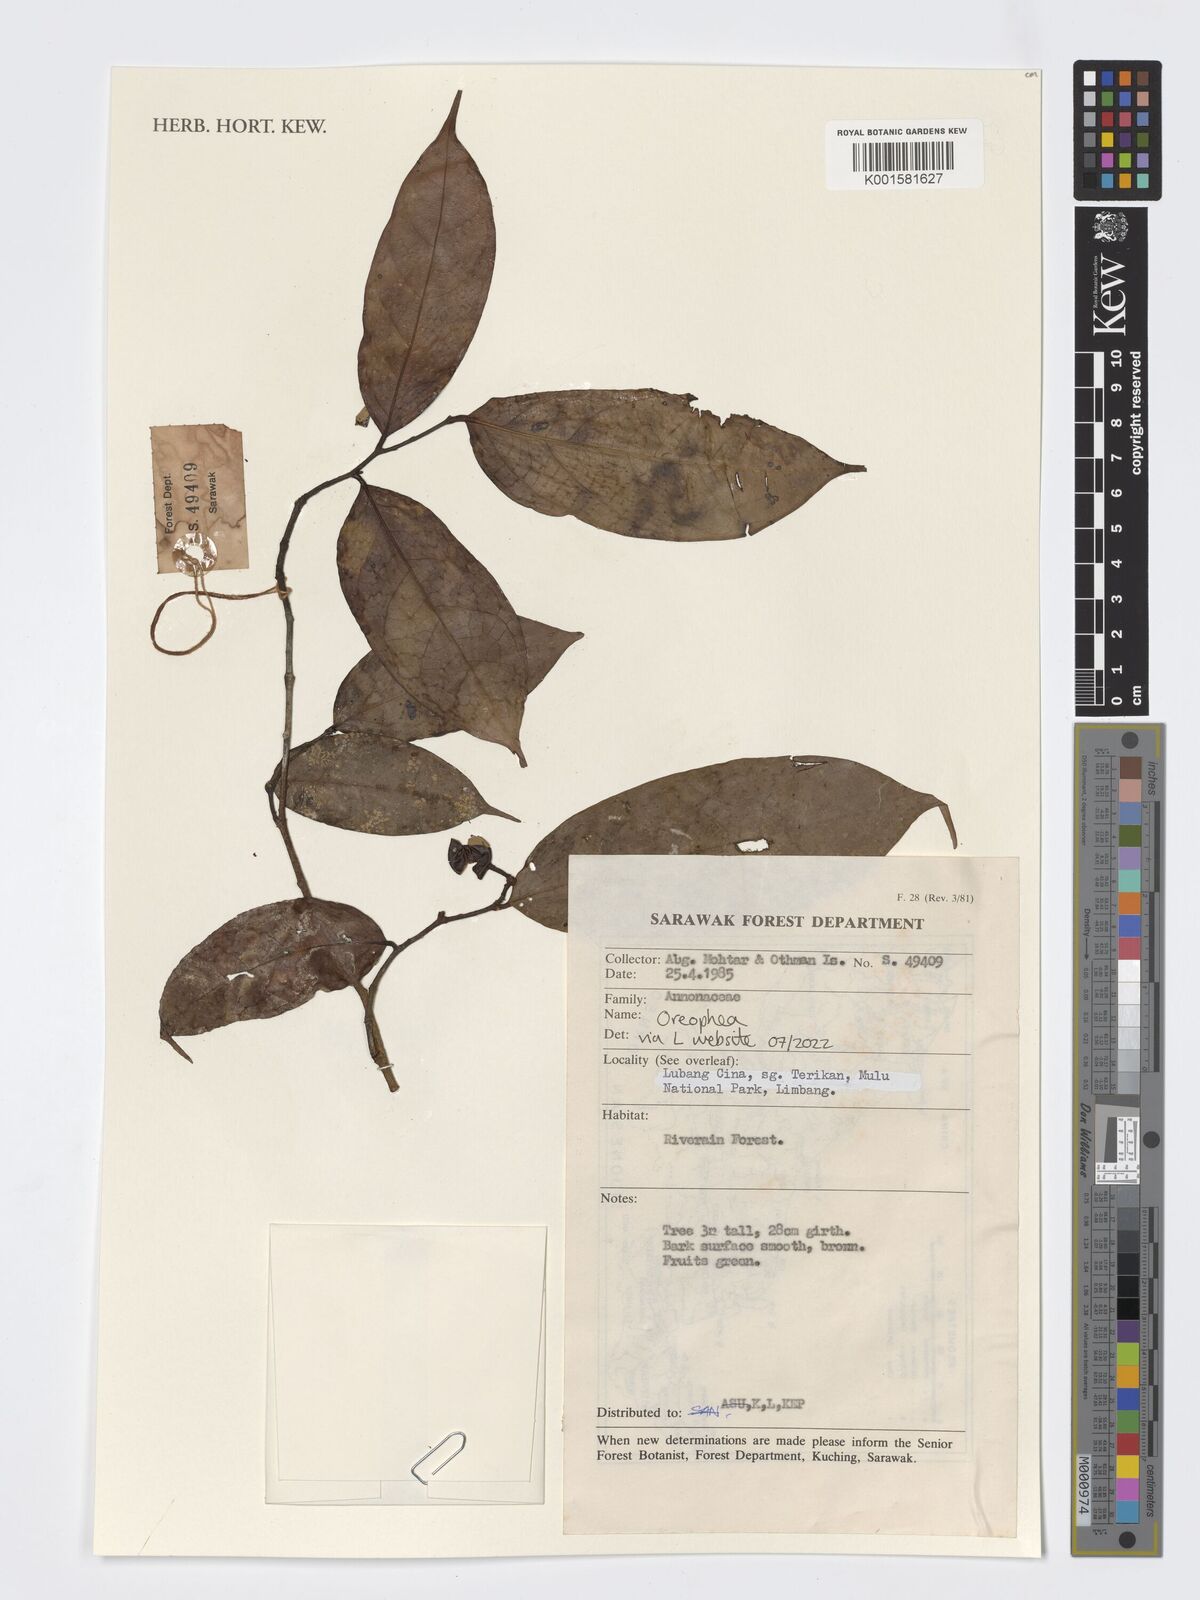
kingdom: Plantae
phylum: Tracheophyta
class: Magnoliopsida
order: Magnoliales
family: Annonaceae
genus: Orophea
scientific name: Orophea
